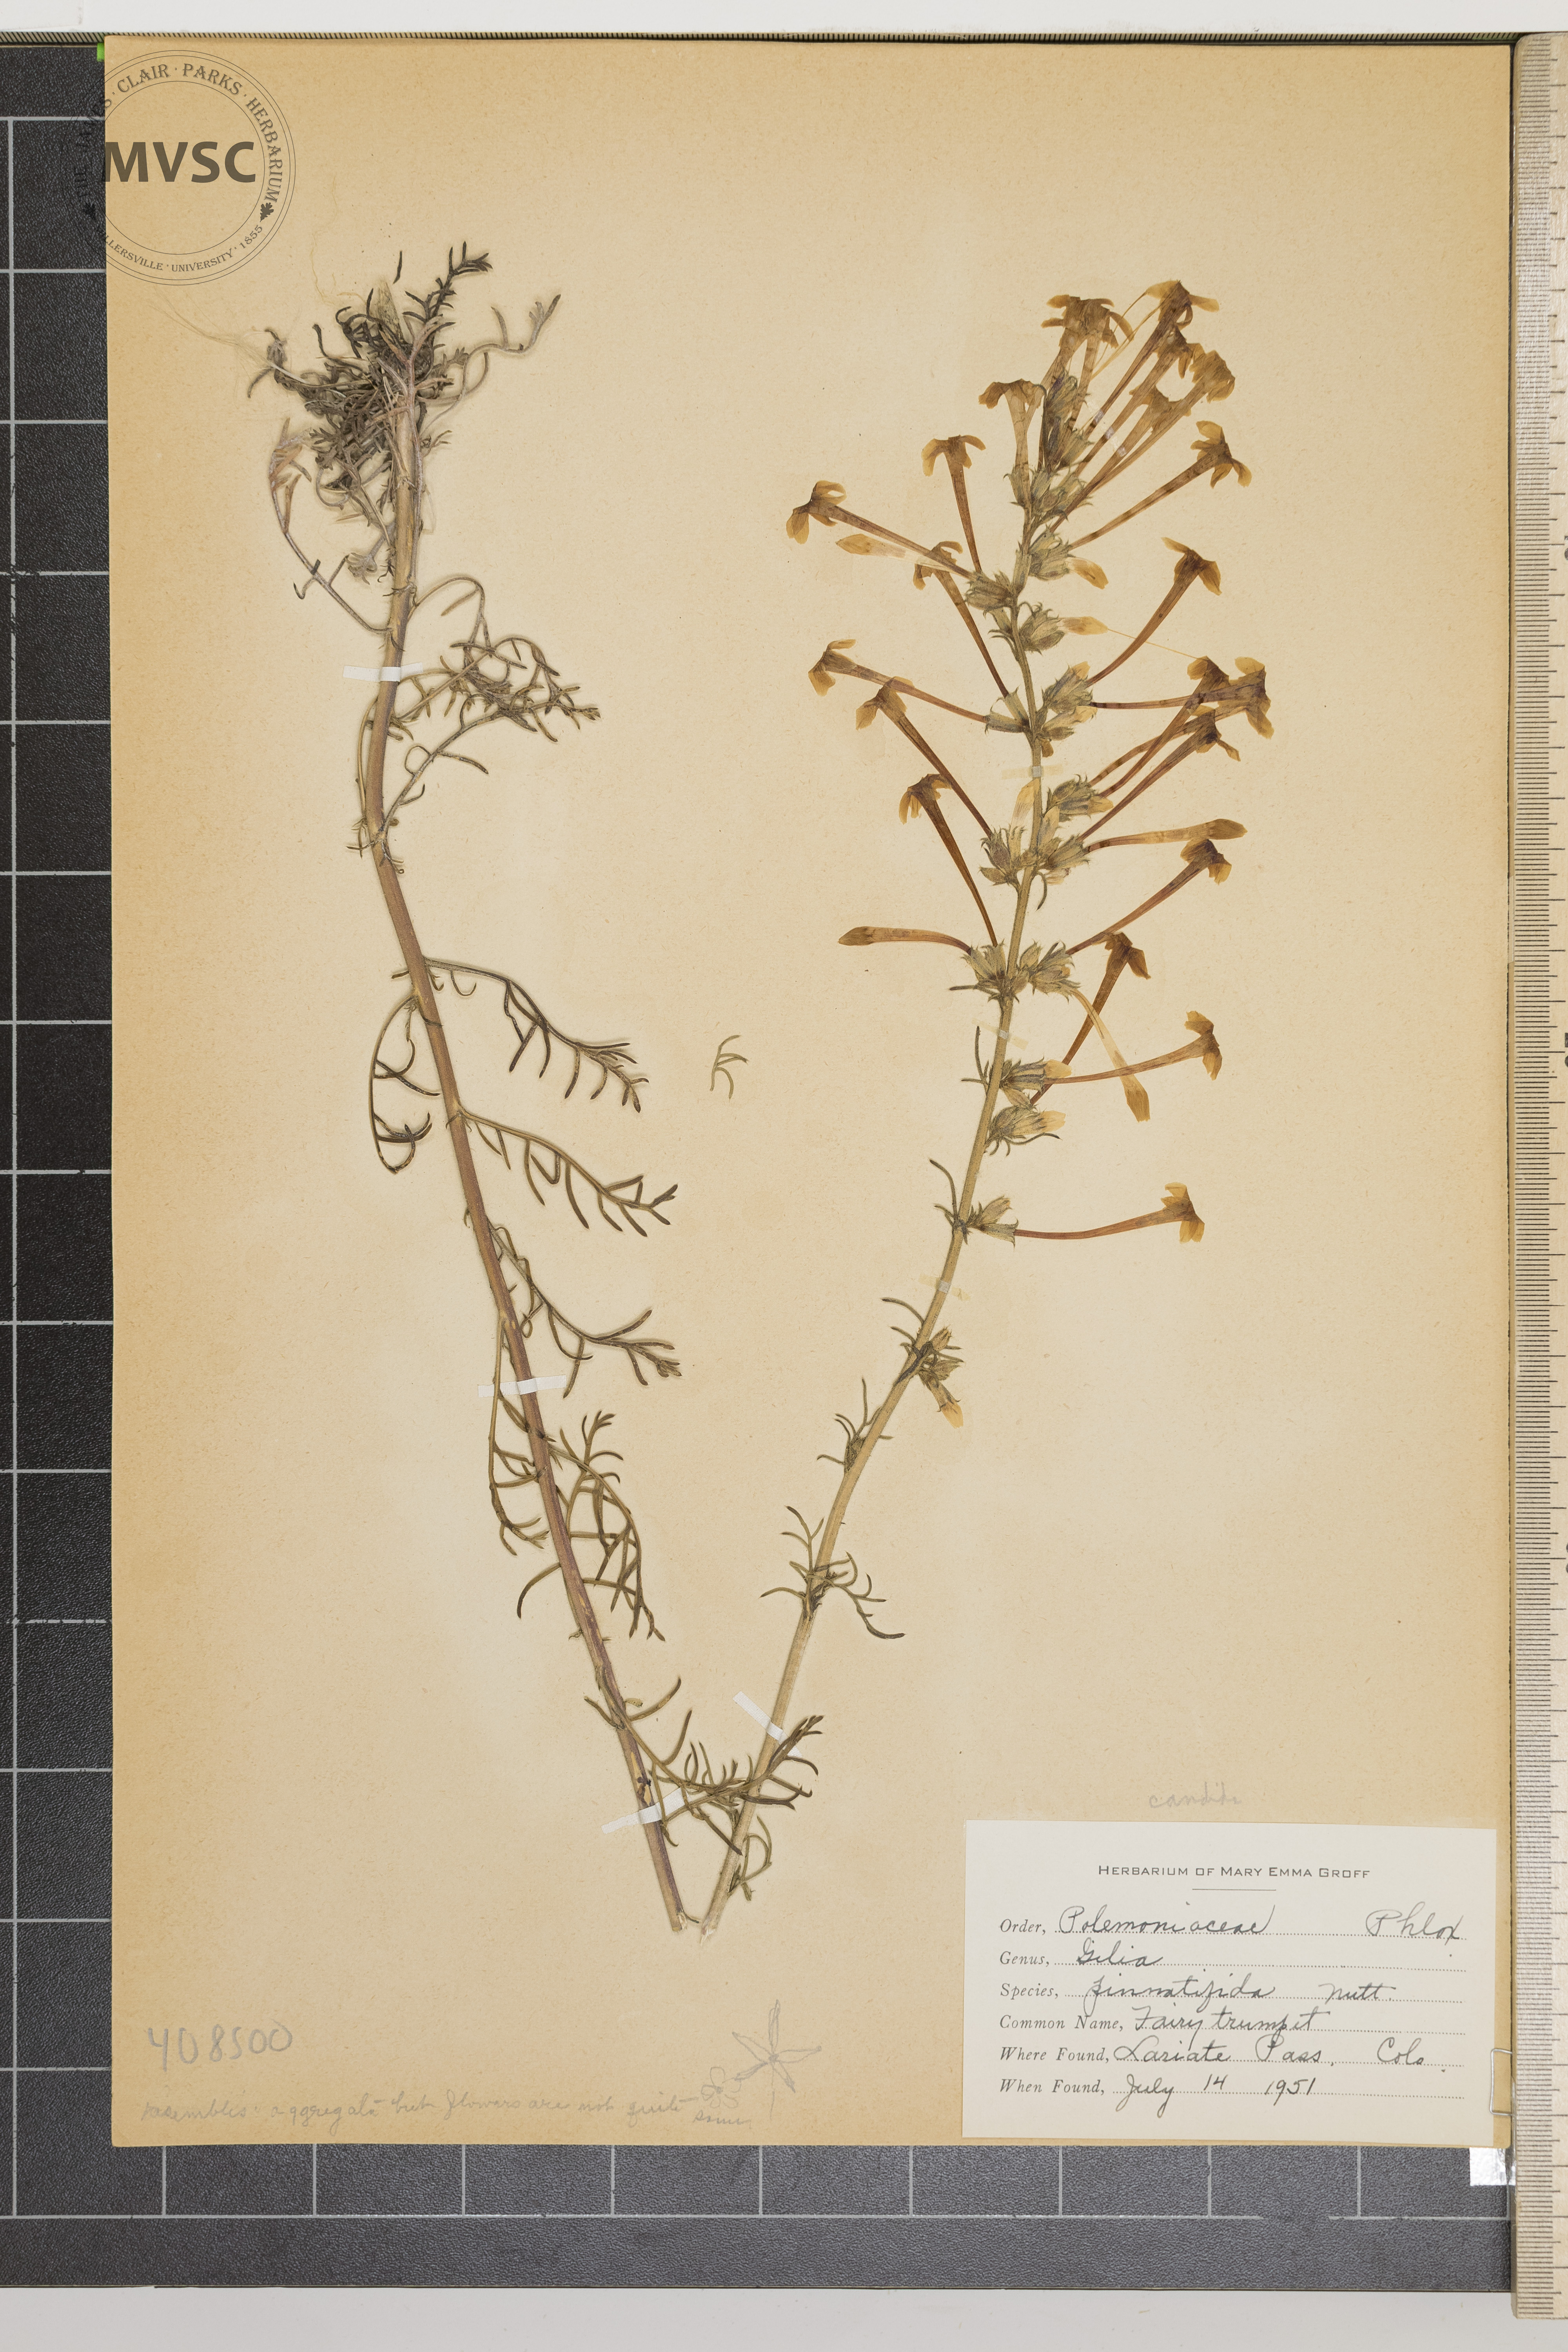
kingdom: Plantae
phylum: Tracheophyta
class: Magnoliopsida
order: Ericales
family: Polemoniaceae
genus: Gilia
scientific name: Gilia pinnatifida
